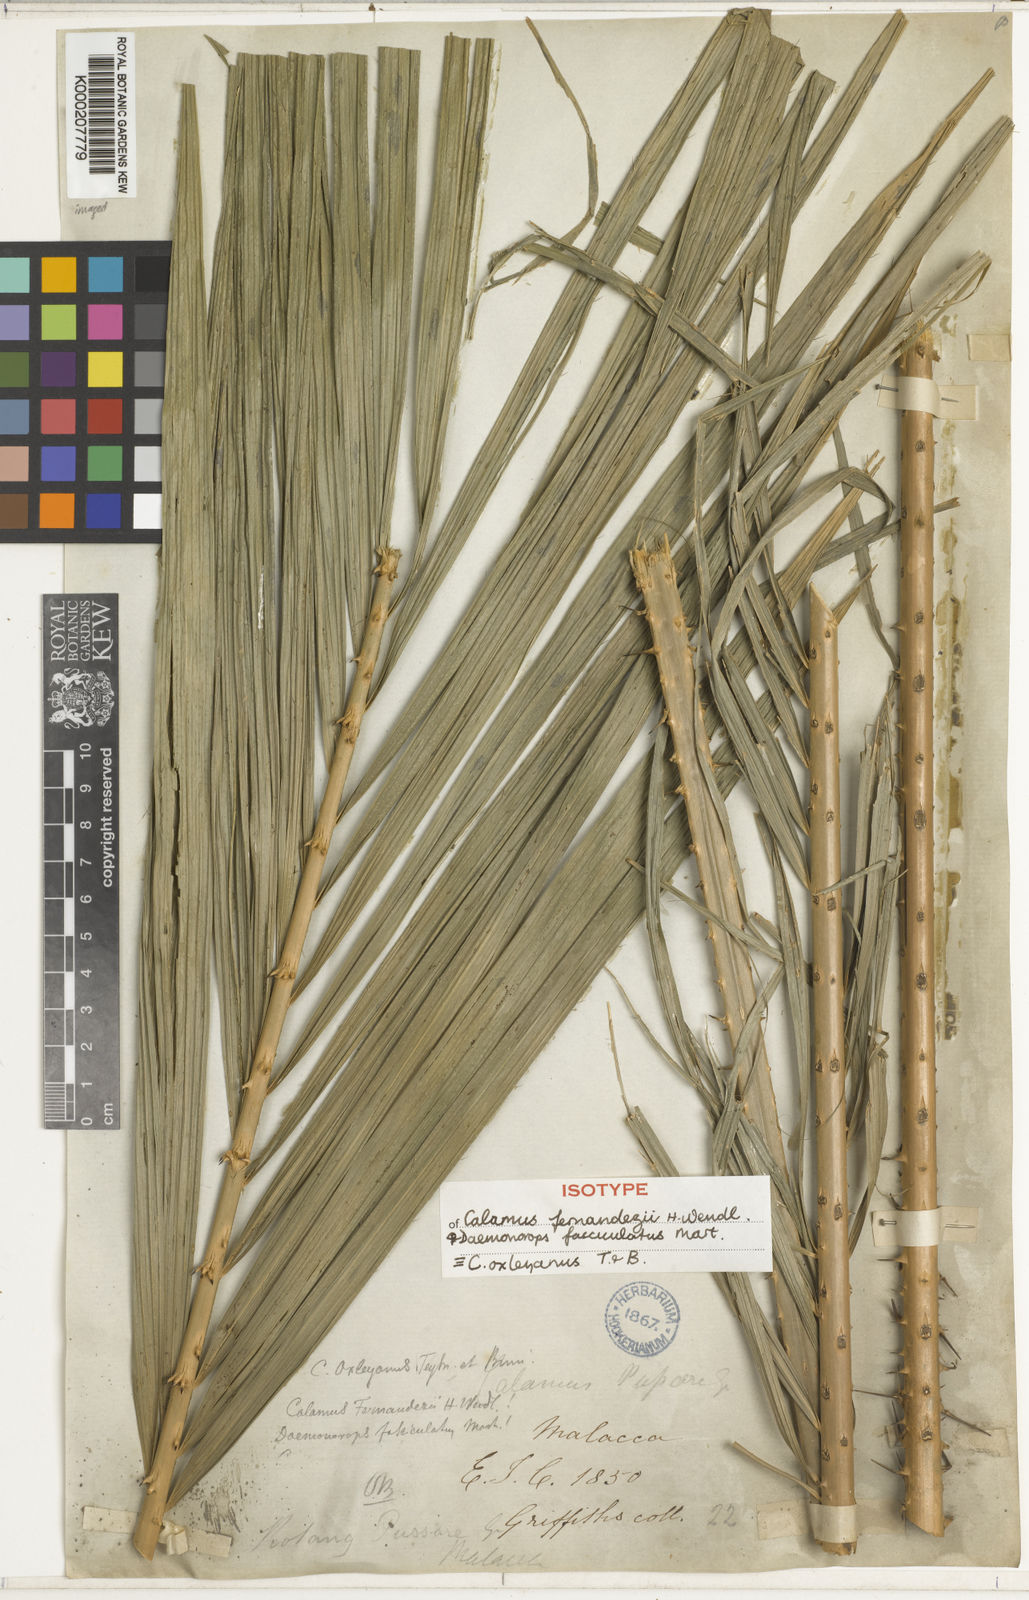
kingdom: Plantae
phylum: Tracheophyta
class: Liliopsida
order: Arecales
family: Arecaceae
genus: Calamus
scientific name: Calamus oxleyanus
